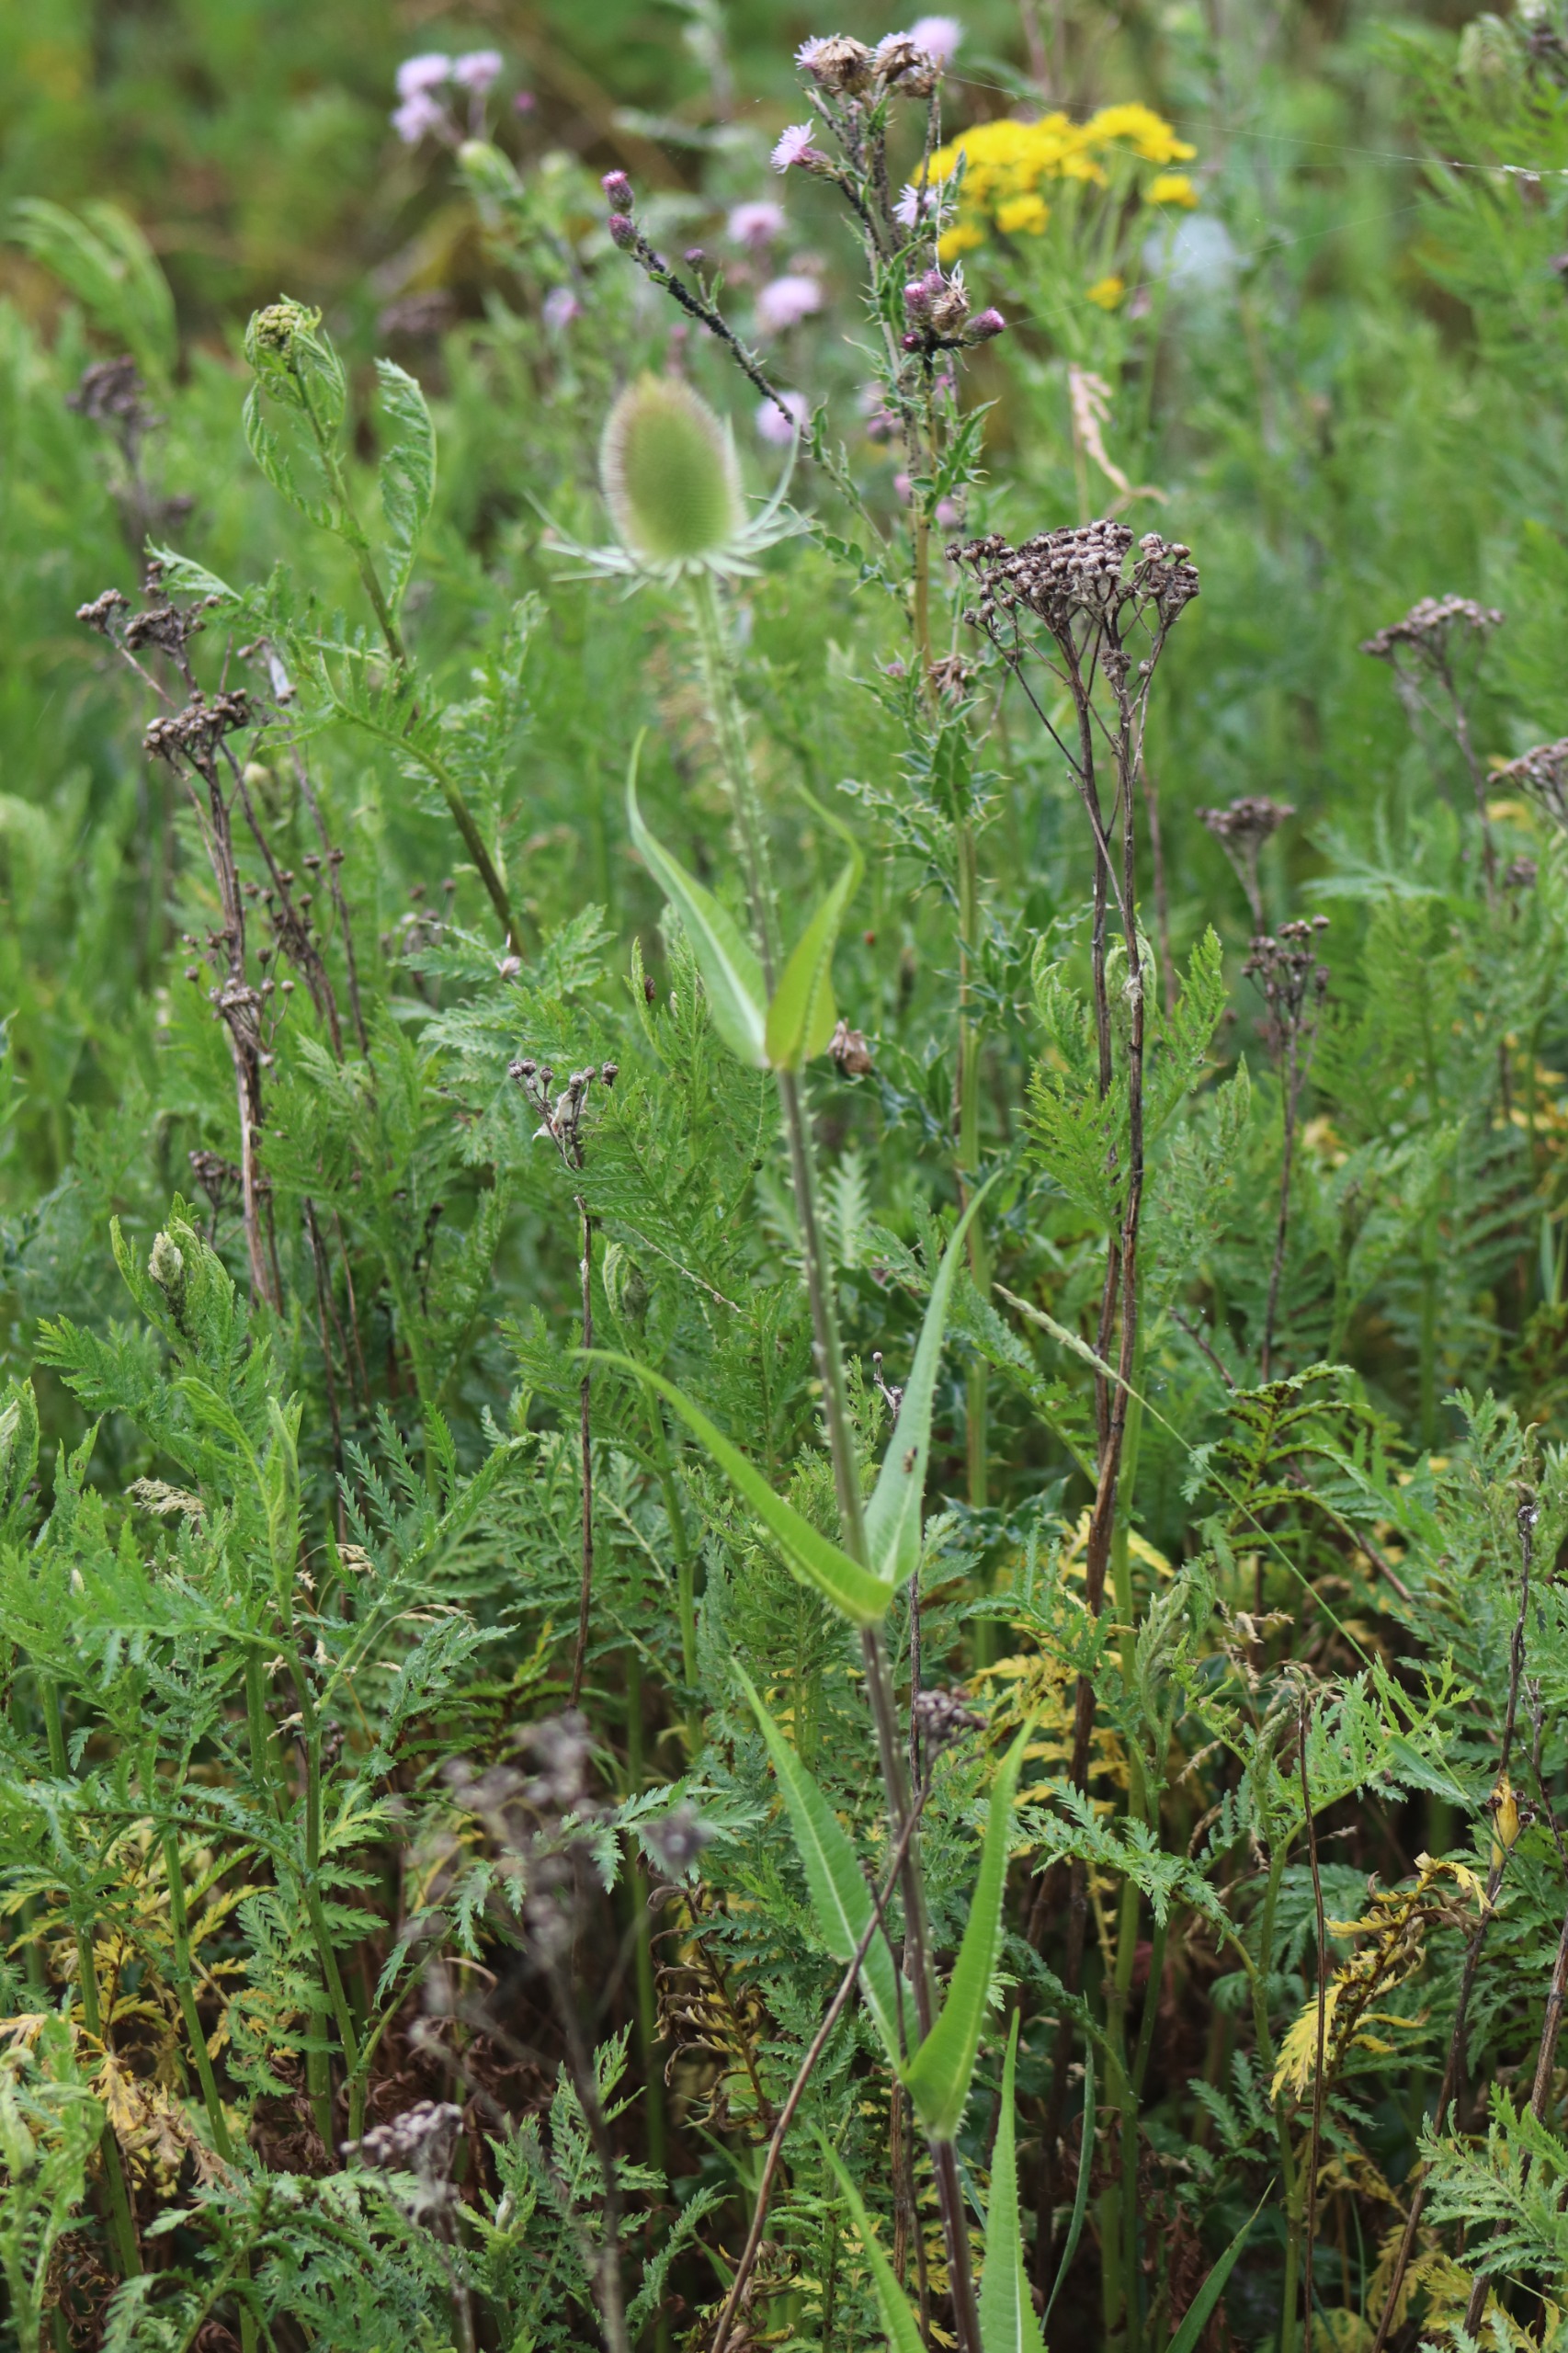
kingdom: Plantae
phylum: Tracheophyta
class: Magnoliopsida
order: Dipsacales
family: Caprifoliaceae
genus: Dipsacus
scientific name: Dipsacus fullonum
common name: Gærde-kartebolle
